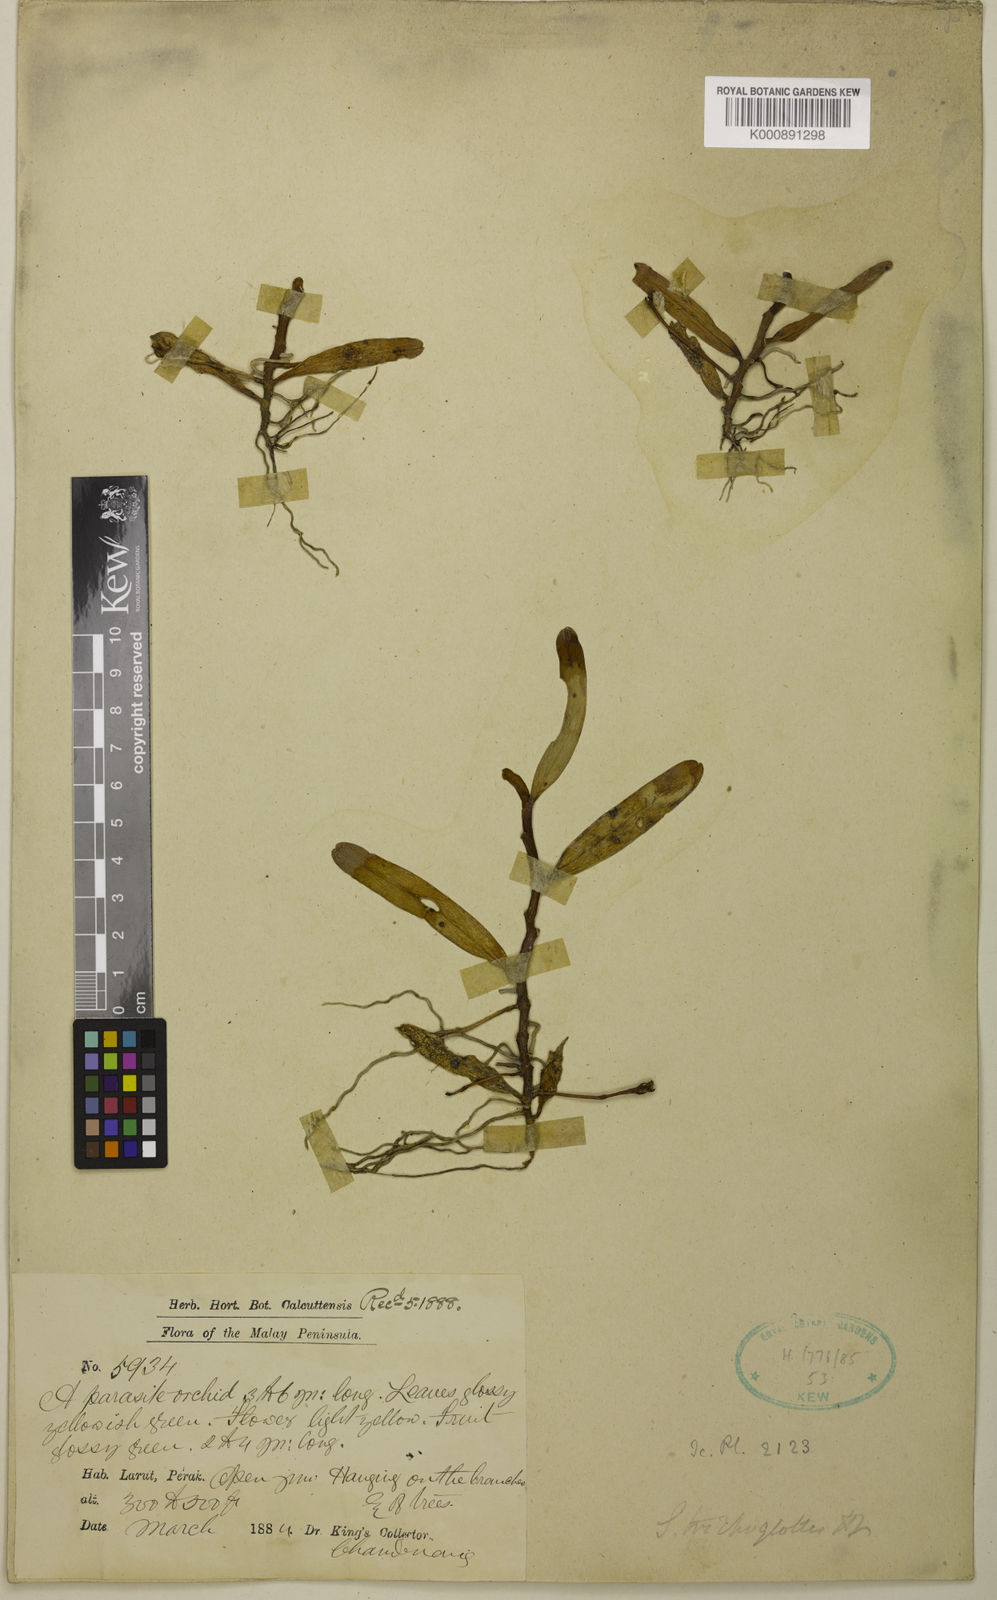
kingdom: Plantae
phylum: Tracheophyta
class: Liliopsida
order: Asparagales
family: Orchidaceae
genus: Thrixspermum
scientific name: Thrixspermum trichoglottis
